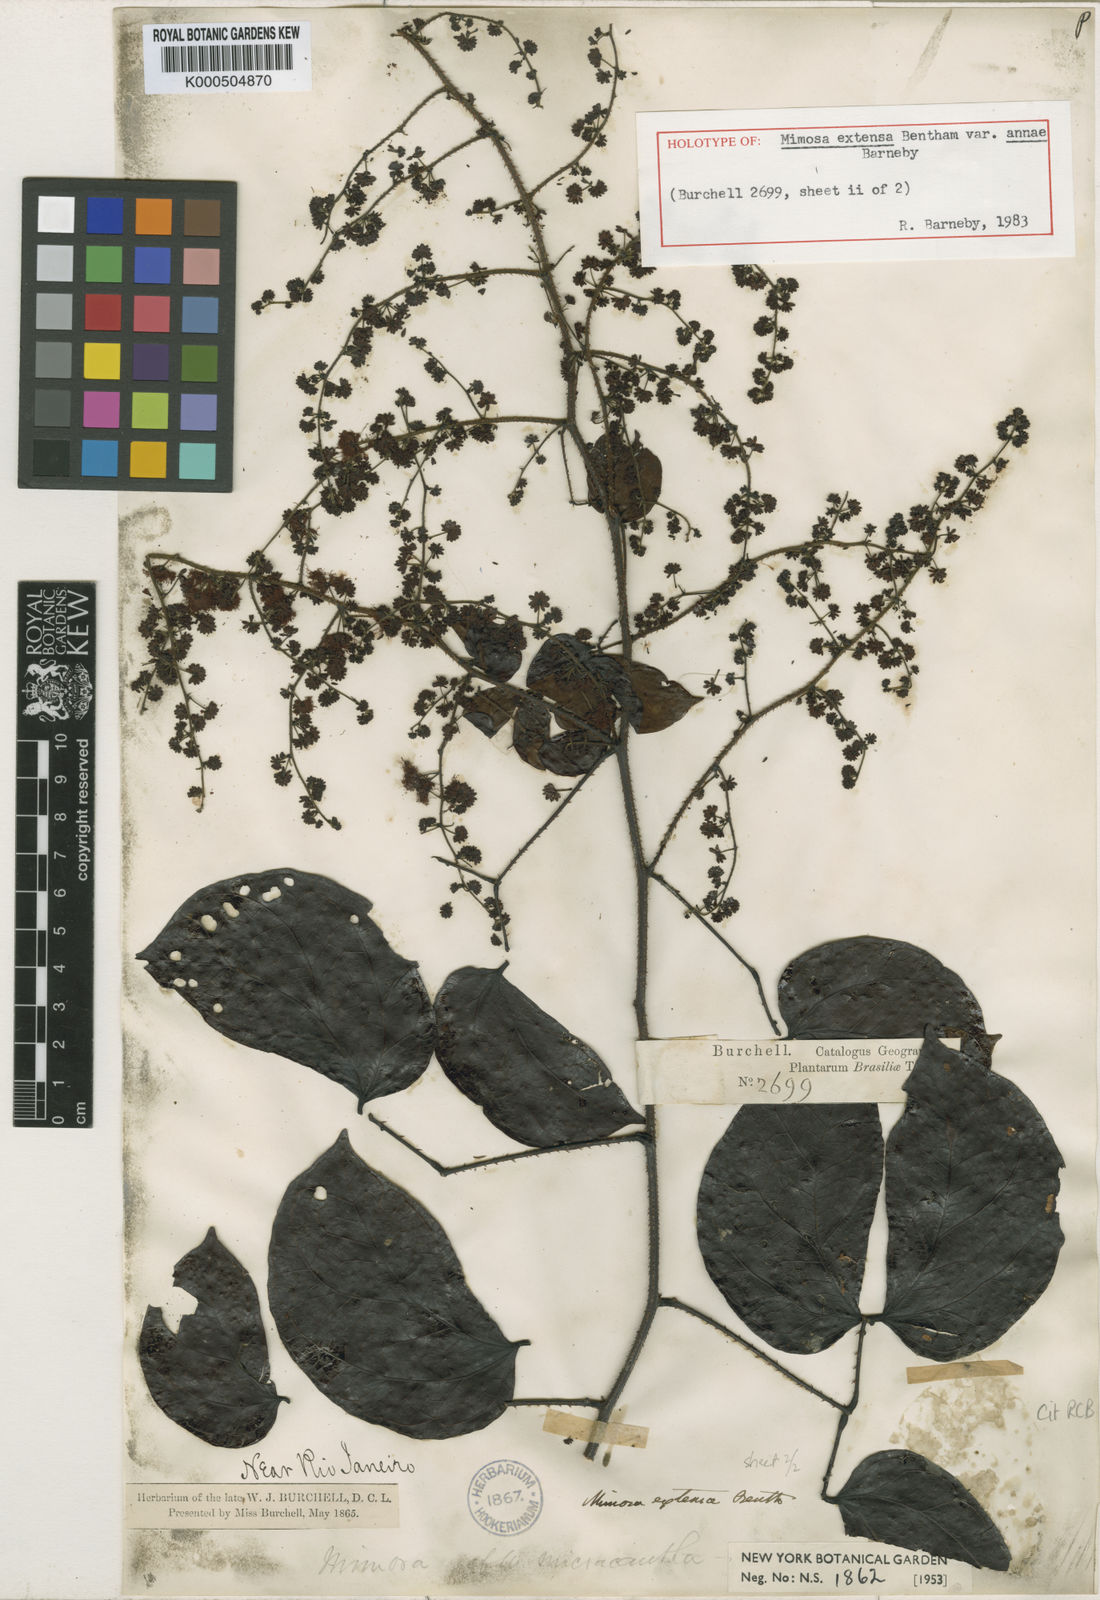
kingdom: Plantae
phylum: Tracheophyta
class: Magnoliopsida
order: Fabales
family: Fabaceae
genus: Mimosa
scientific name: Mimosa extensa
